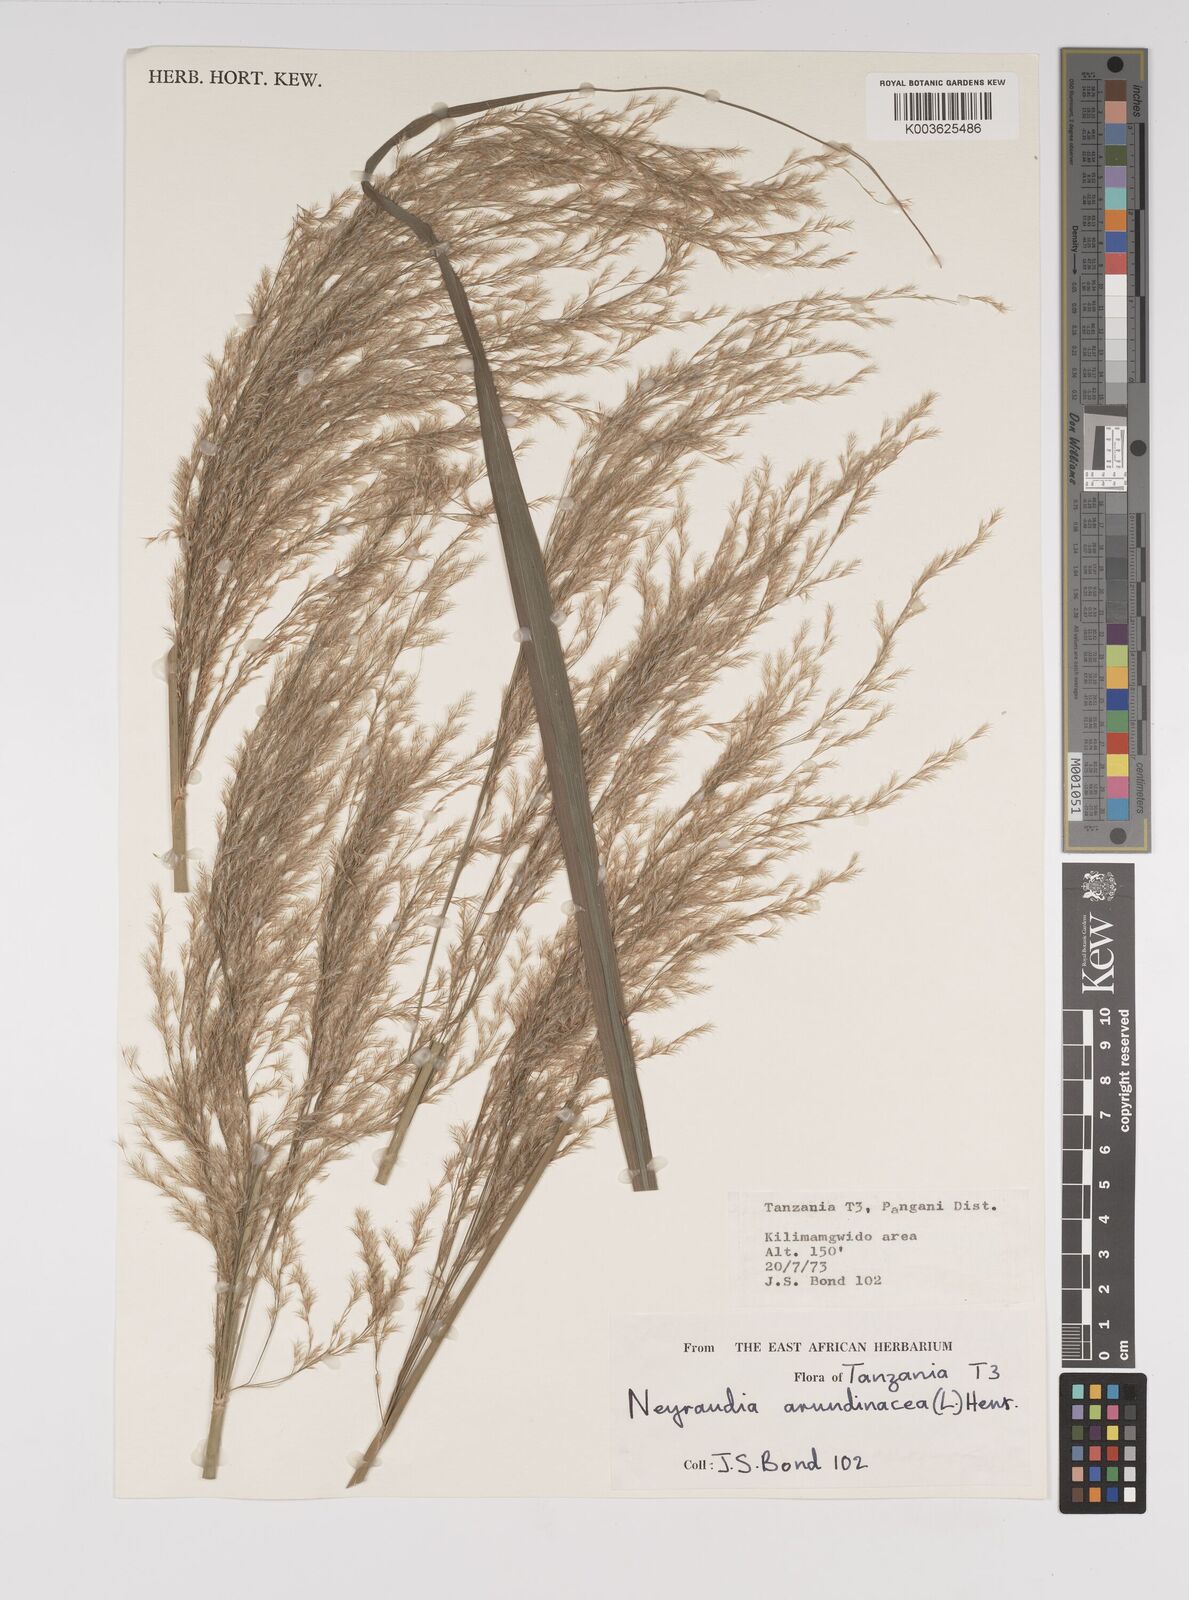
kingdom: Plantae
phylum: Tracheophyta
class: Liliopsida
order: Poales
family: Poaceae
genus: Neyraudia
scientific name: Neyraudia arundinacea
